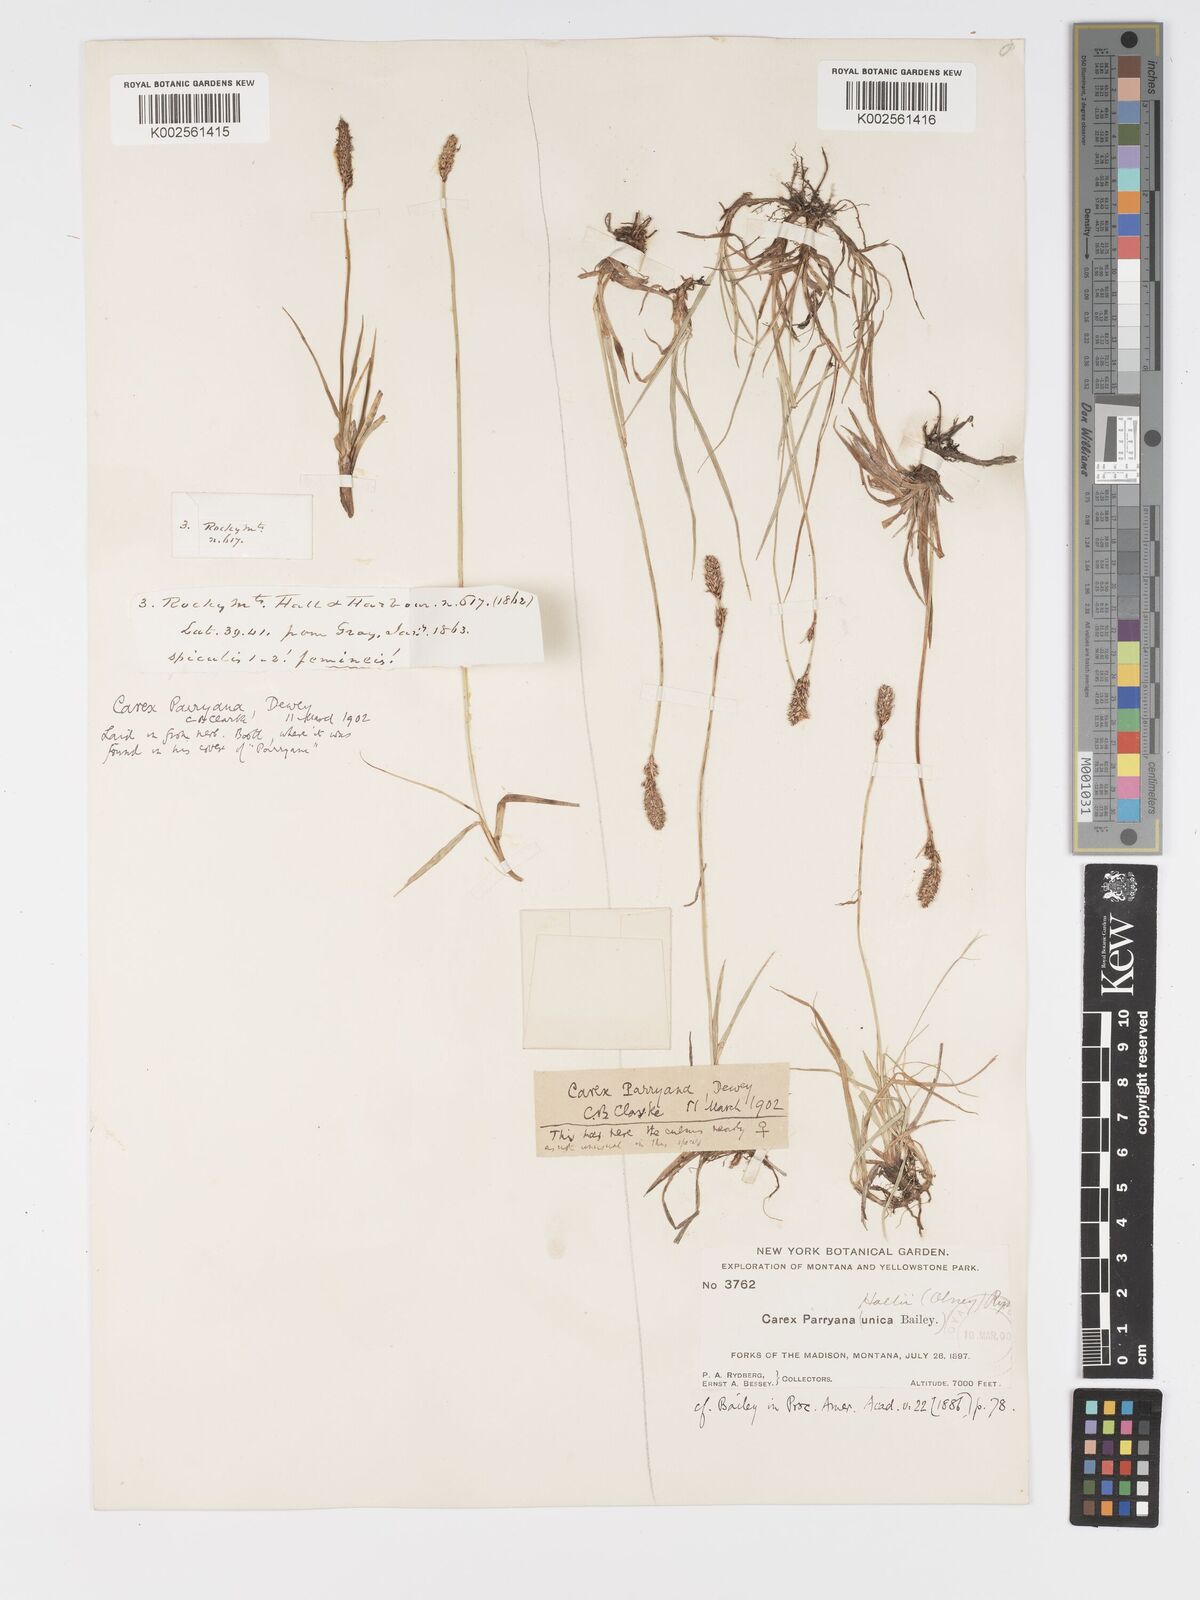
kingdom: Plantae
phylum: Tracheophyta
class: Liliopsida
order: Poales
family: Cyperaceae
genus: Carex
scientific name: Carex hallii
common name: Deer sedge
